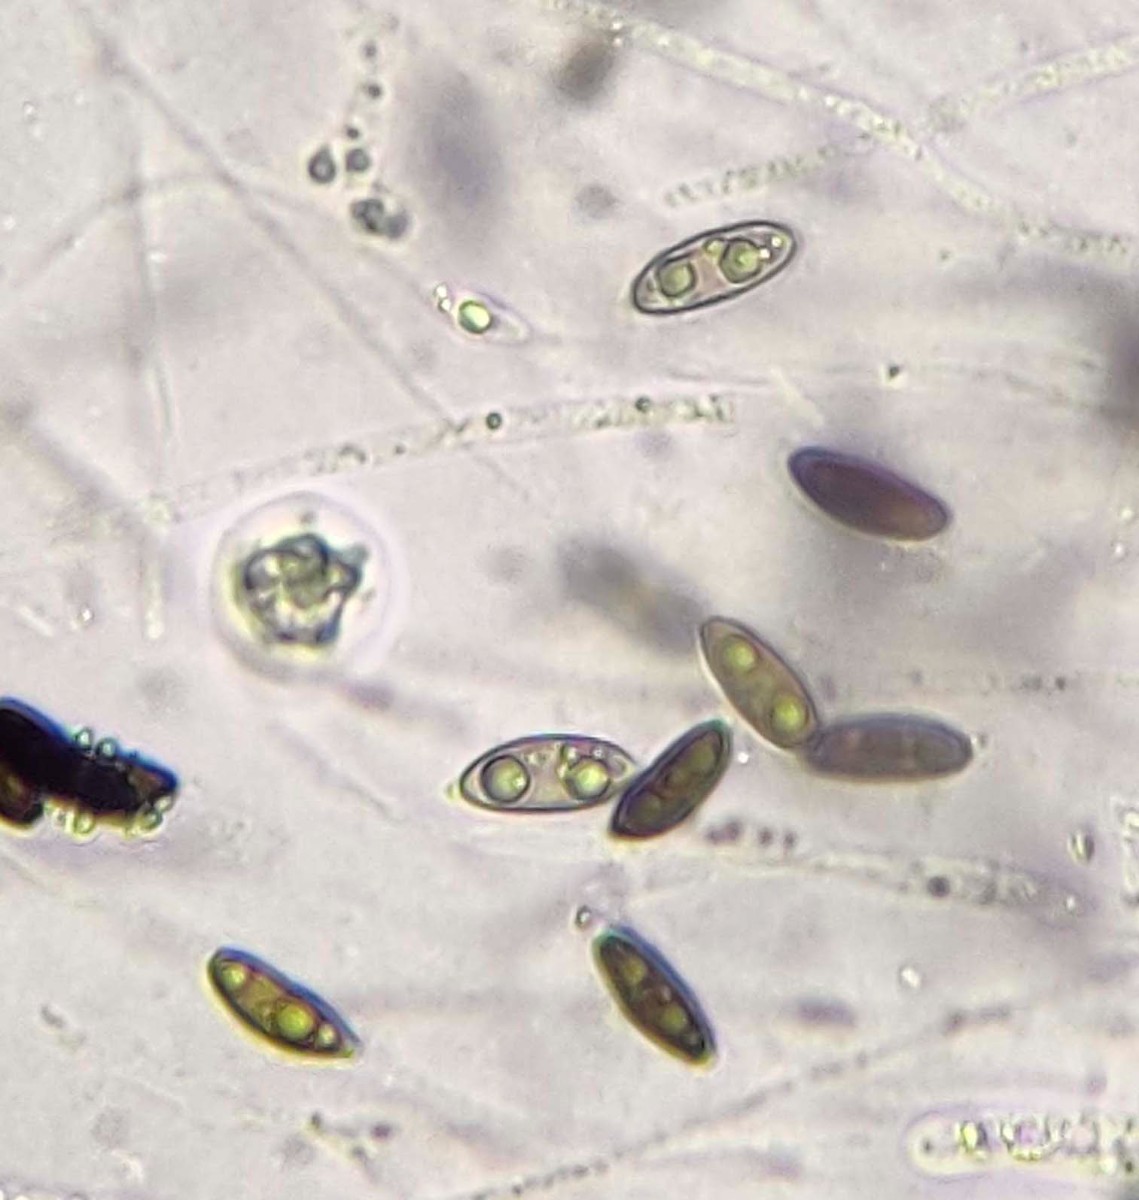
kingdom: Fungi
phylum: Ascomycota
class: Sordariomycetes
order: Xylariales
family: Xylariaceae
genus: Rosellinia
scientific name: Rosellinia aquila
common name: tykskallet kulkaviar
